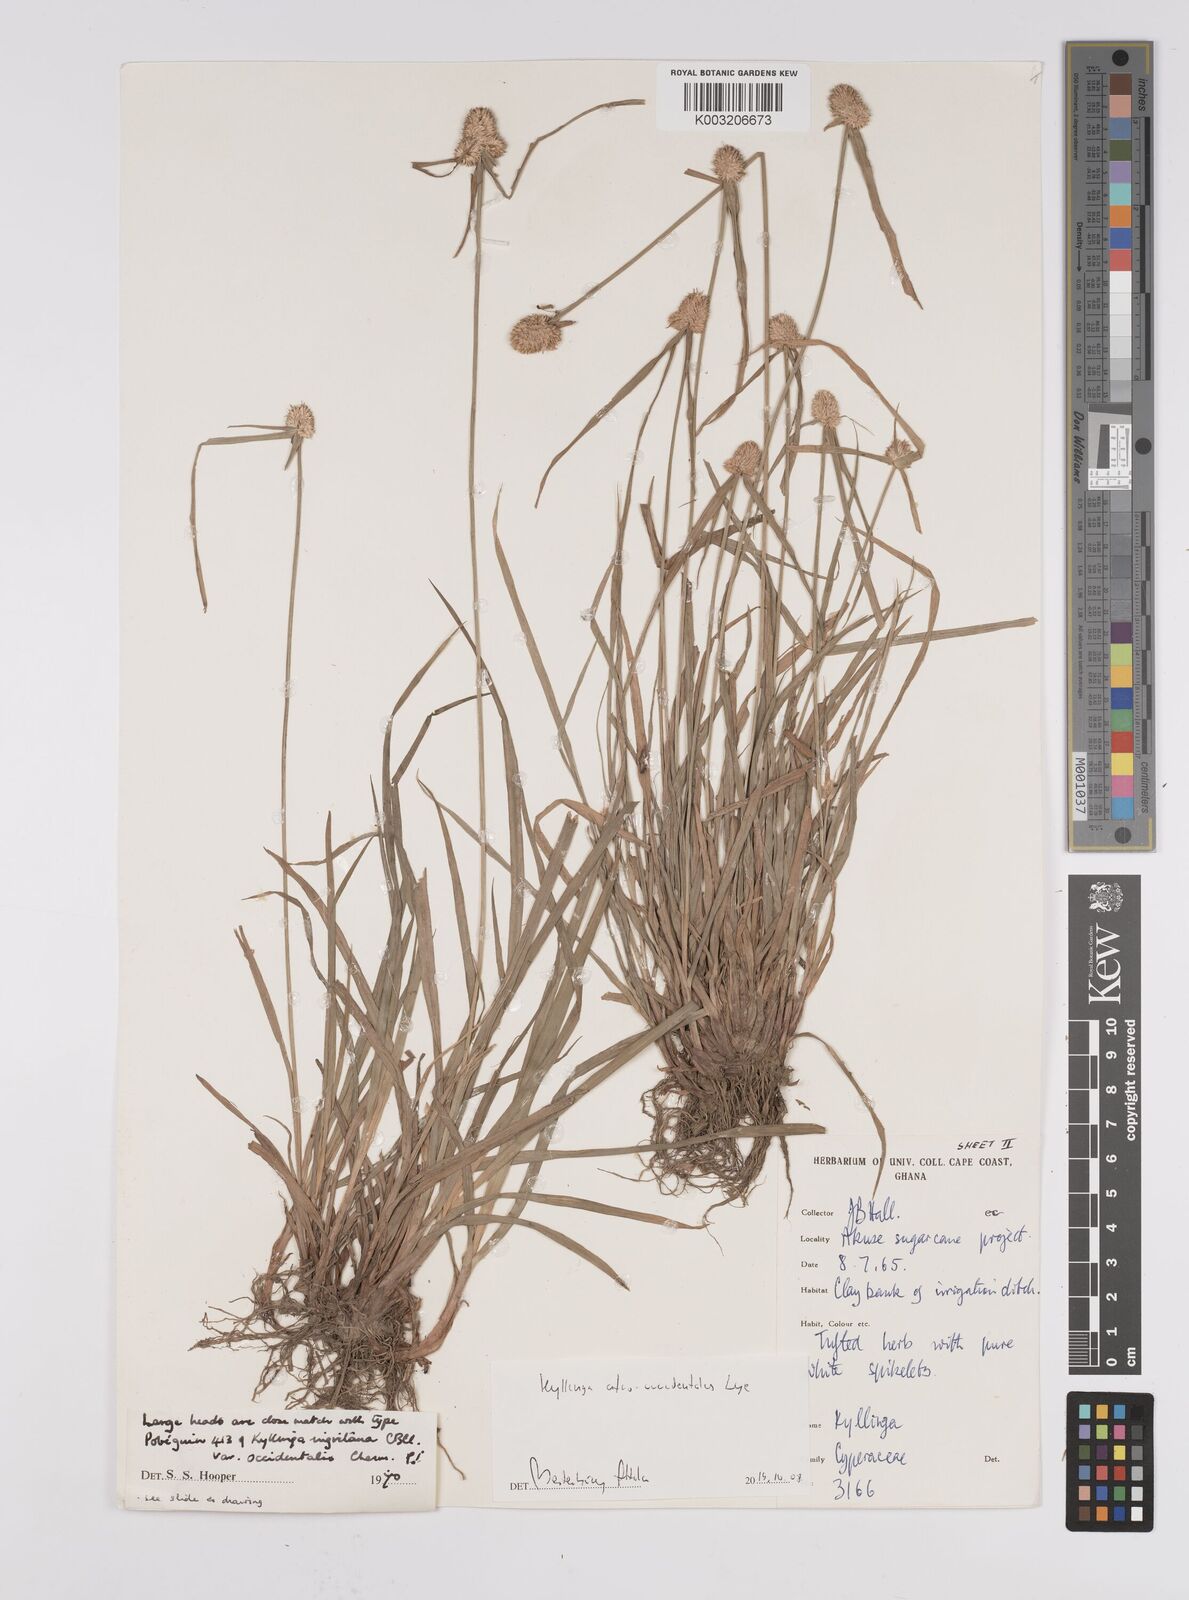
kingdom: Plantae
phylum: Tracheophyta
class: Liliopsida
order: Poales
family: Cyperaceae
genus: Cyperus
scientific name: Cyperus afro-occidentalis
